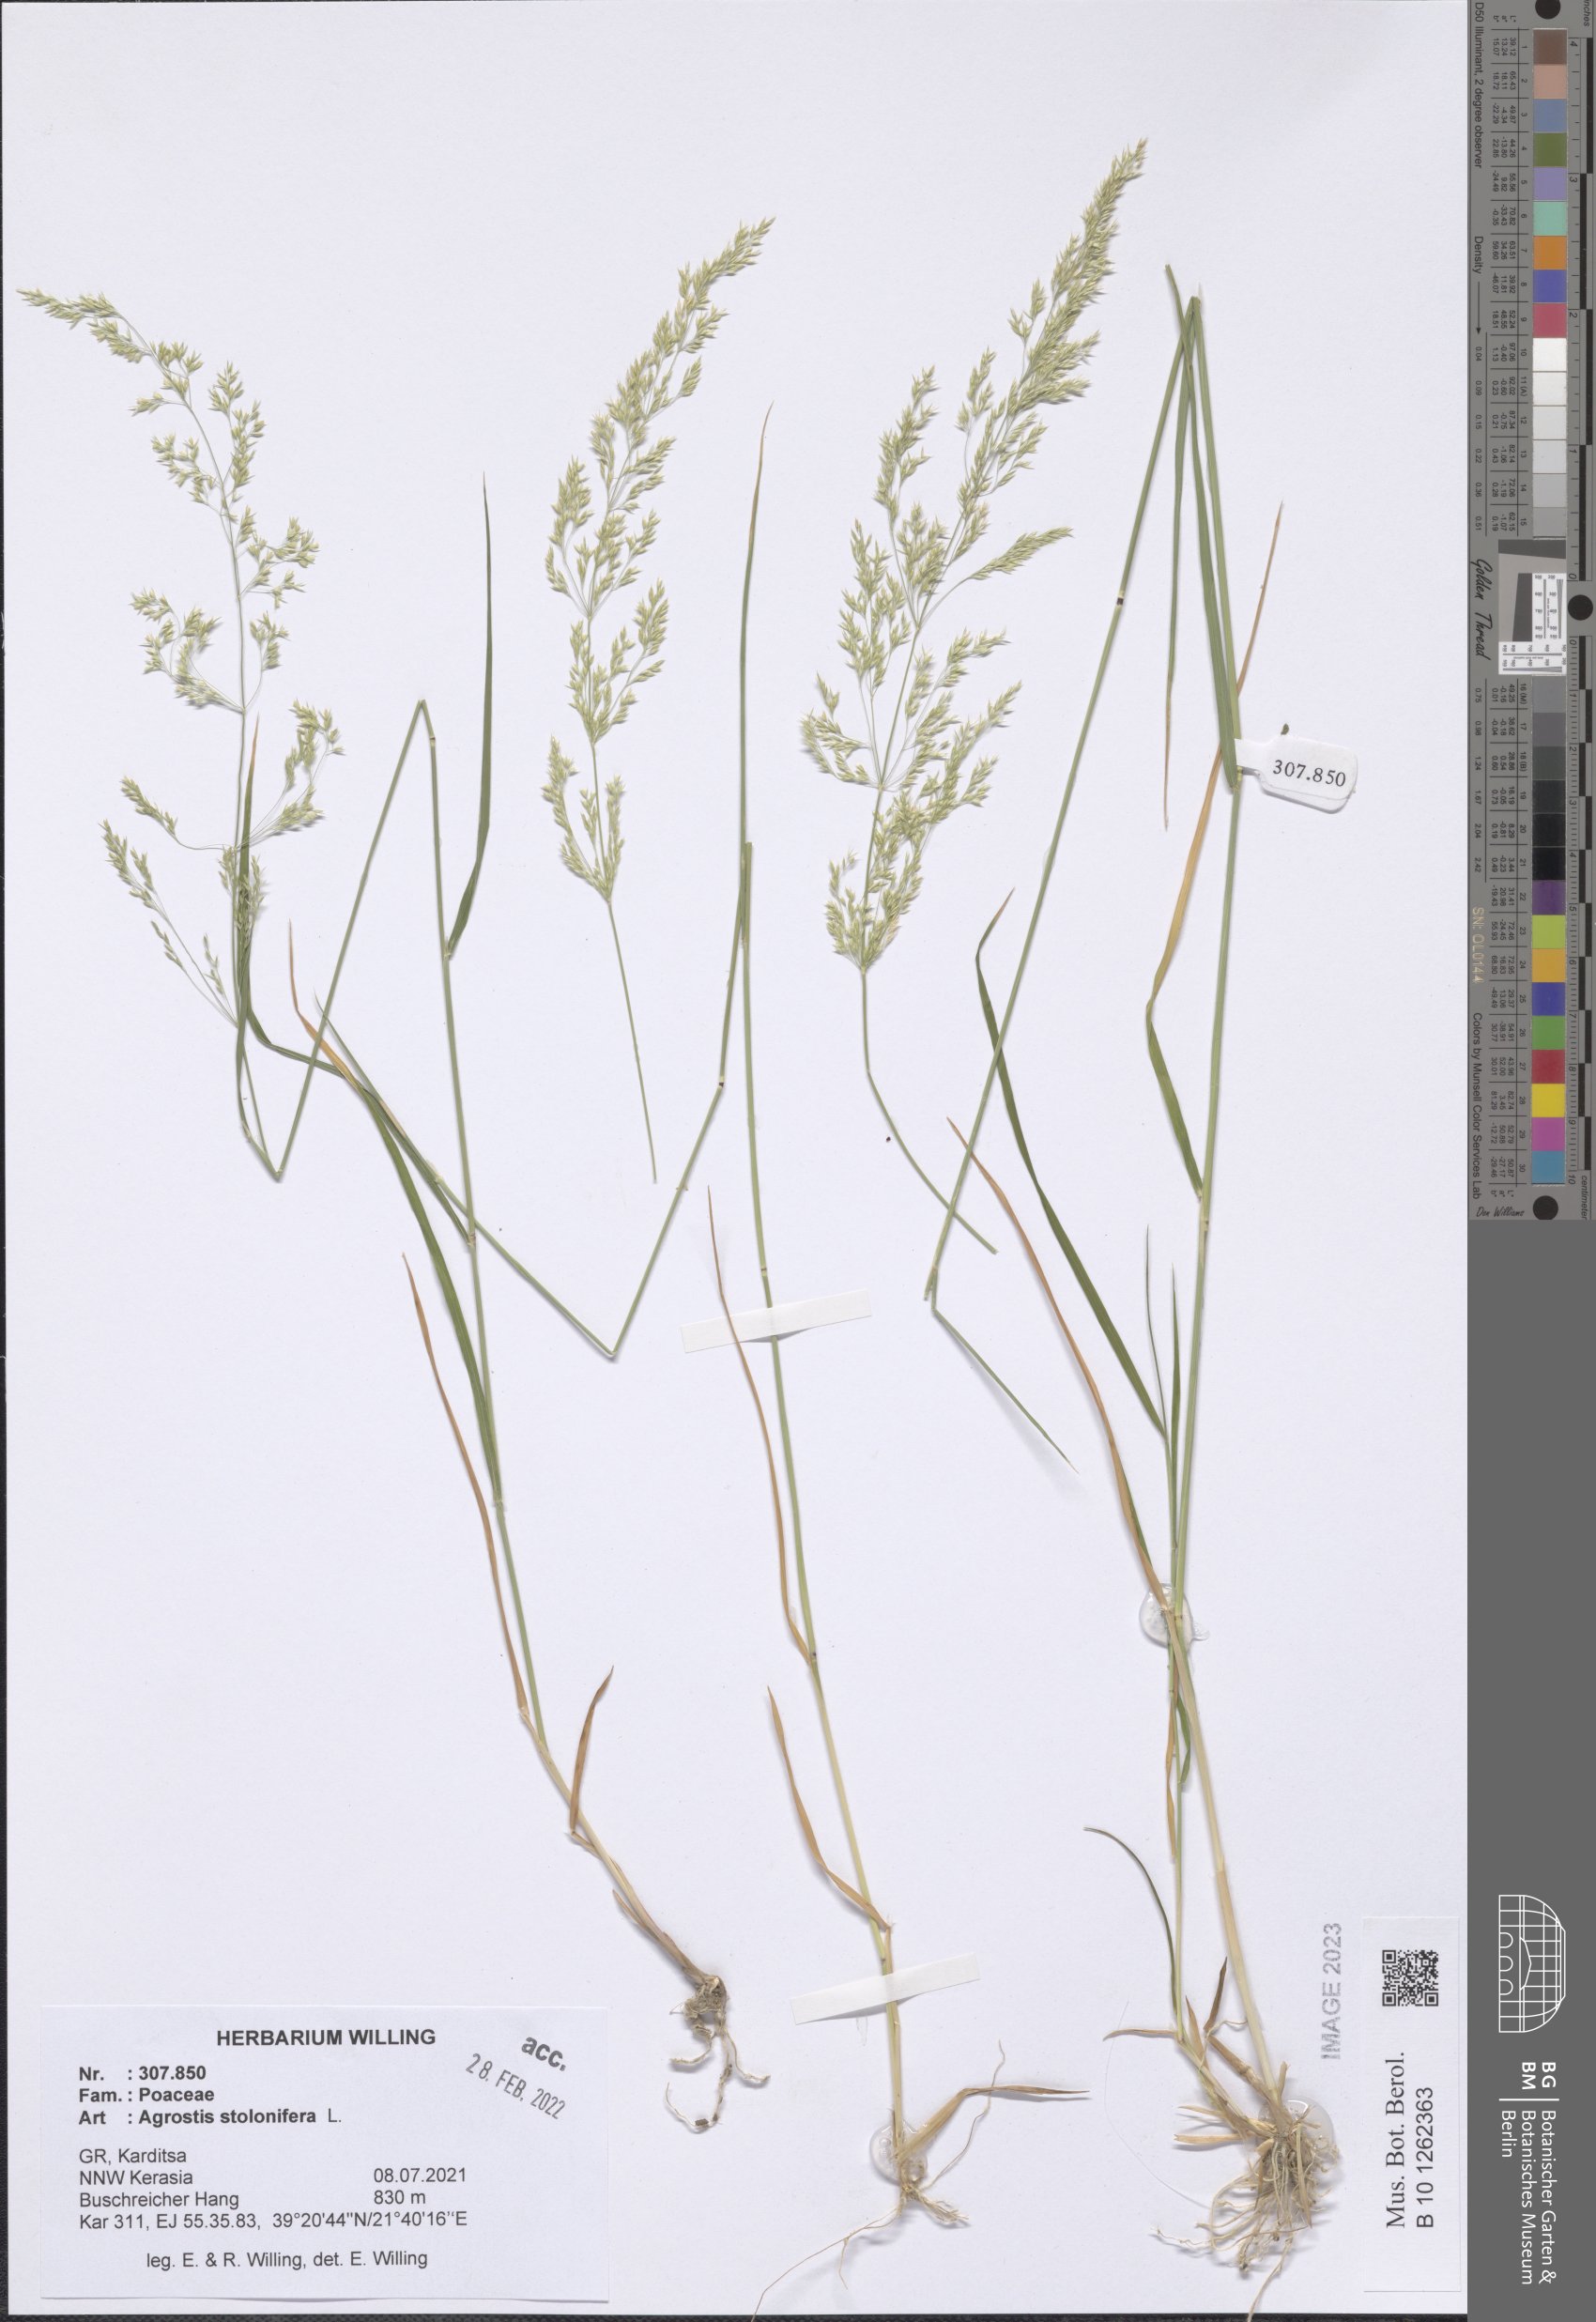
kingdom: Plantae
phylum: Tracheophyta
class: Liliopsida
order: Poales
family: Poaceae
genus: Agrostis
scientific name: Agrostis stolonifera
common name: Creeping bentgrass
